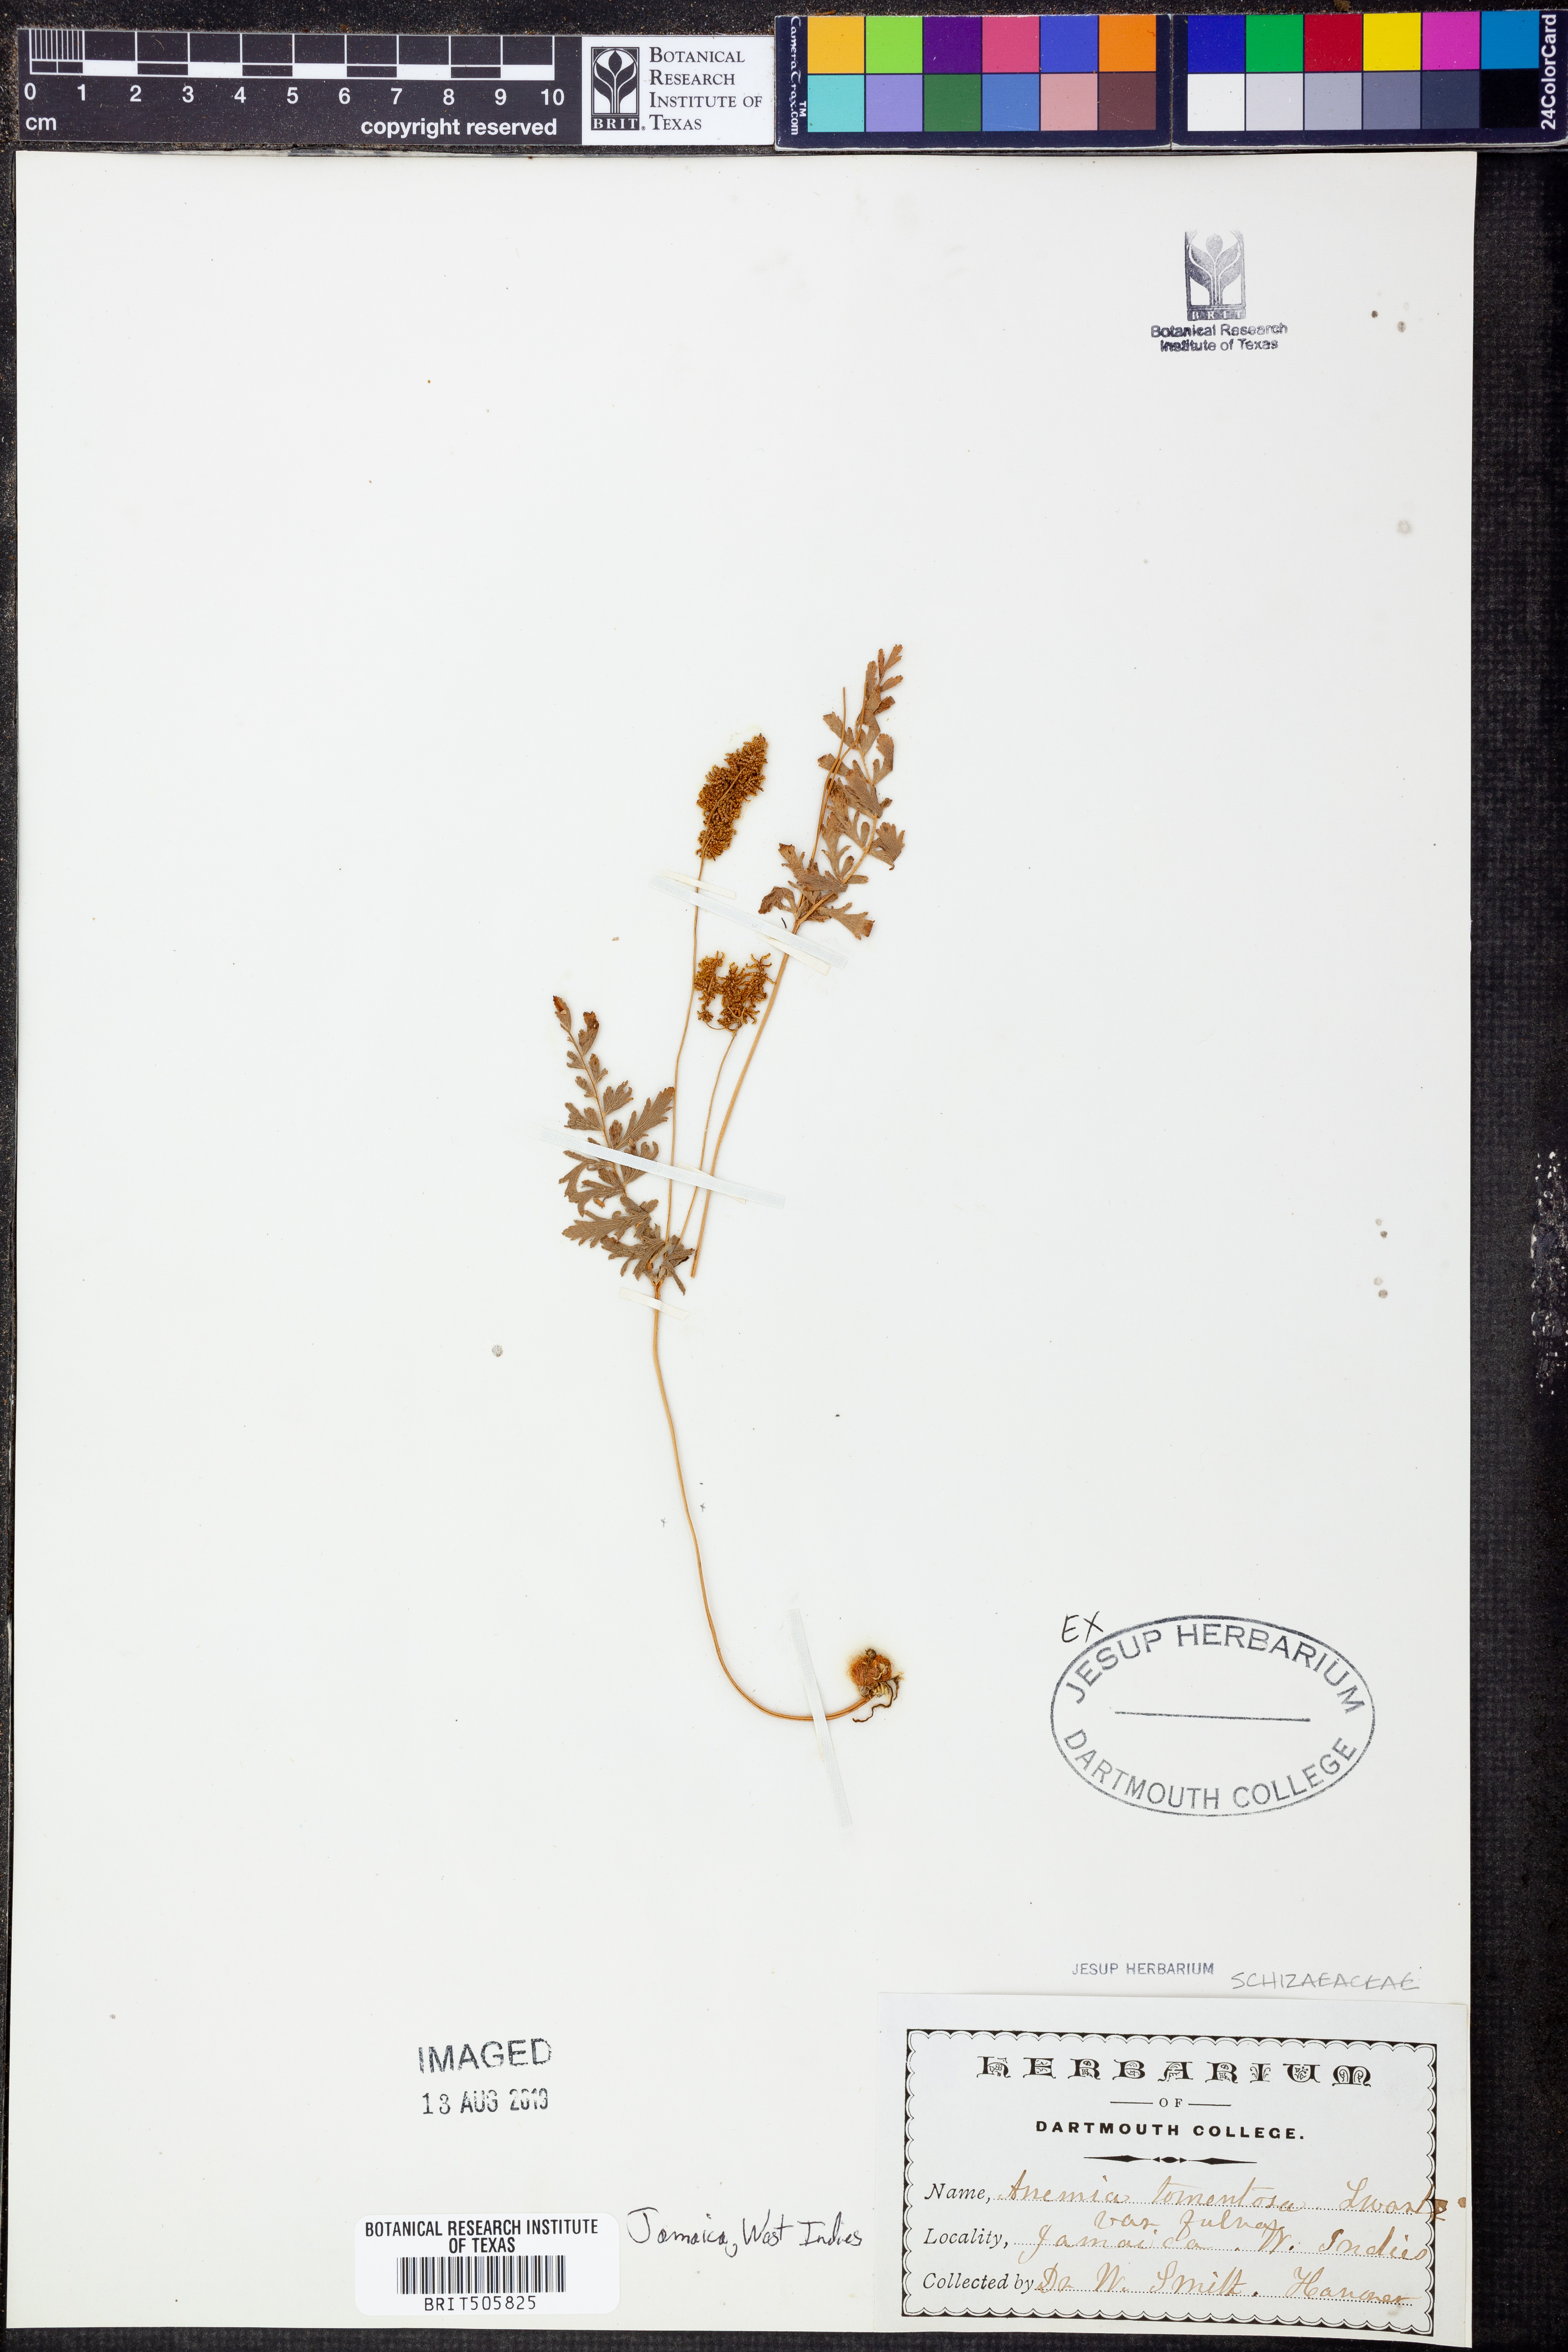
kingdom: Plantae
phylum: Tracheophyta
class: Polypodiopsida
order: Schizaeales
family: Anemiaceae
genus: Anemia
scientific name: Anemia ferruginea
